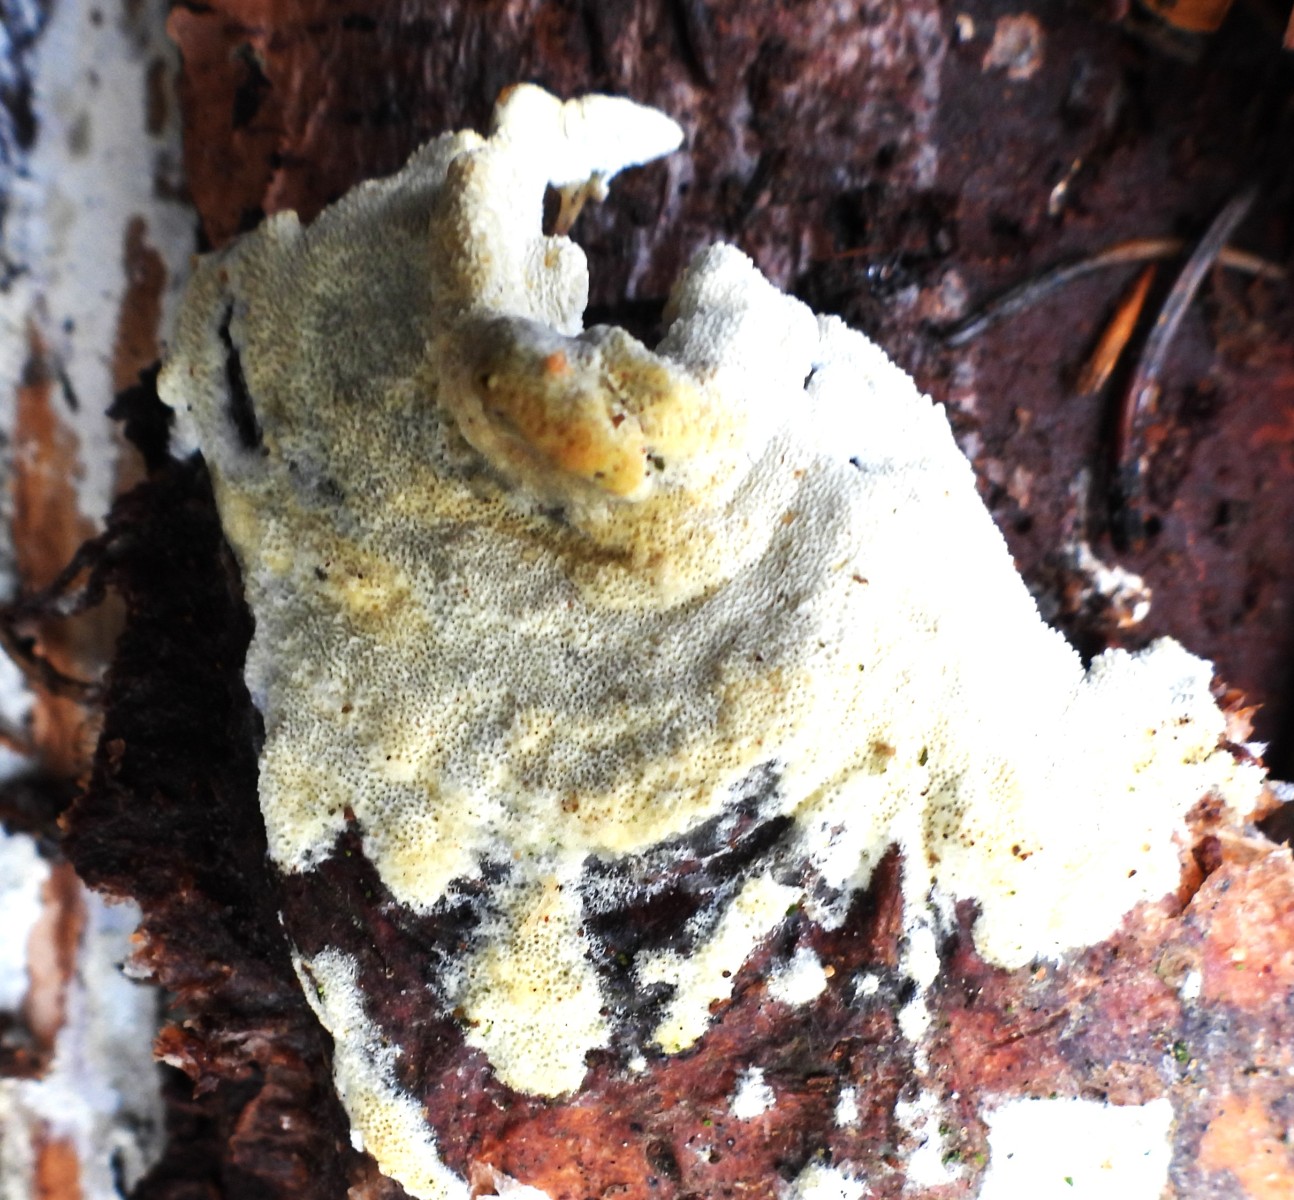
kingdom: Fungi
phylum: Basidiomycota
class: Agaricomycetes
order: Hymenochaetales
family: Schizoporaceae
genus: Xylodon
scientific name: Xylodon subtropicus
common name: labyrint-tandsvamp
